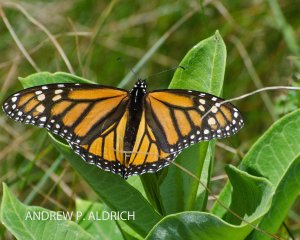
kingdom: Animalia
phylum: Arthropoda
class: Insecta
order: Lepidoptera
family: Nymphalidae
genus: Danaus
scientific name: Danaus plexippus
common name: Monarch
